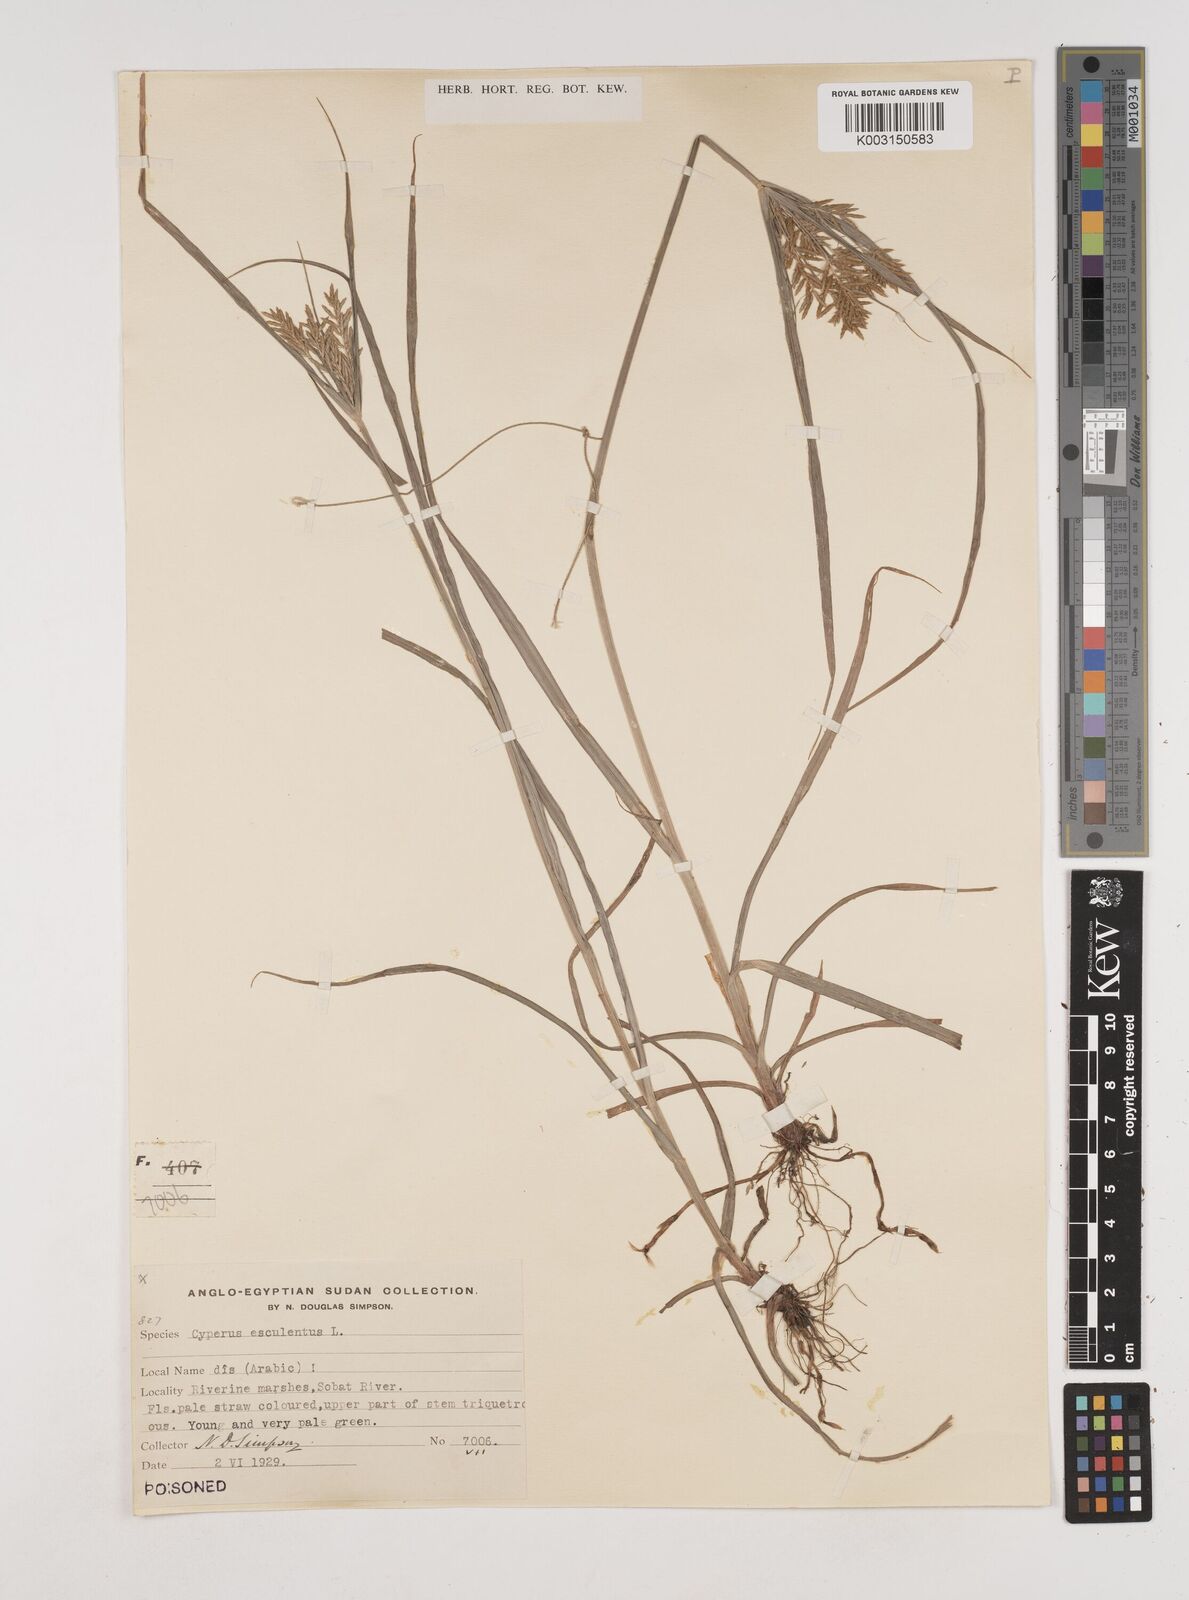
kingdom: Plantae
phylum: Tracheophyta
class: Liliopsida
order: Poales
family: Cyperaceae
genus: Cyperus
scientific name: Cyperus esculentus
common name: Yellow nutsedge
